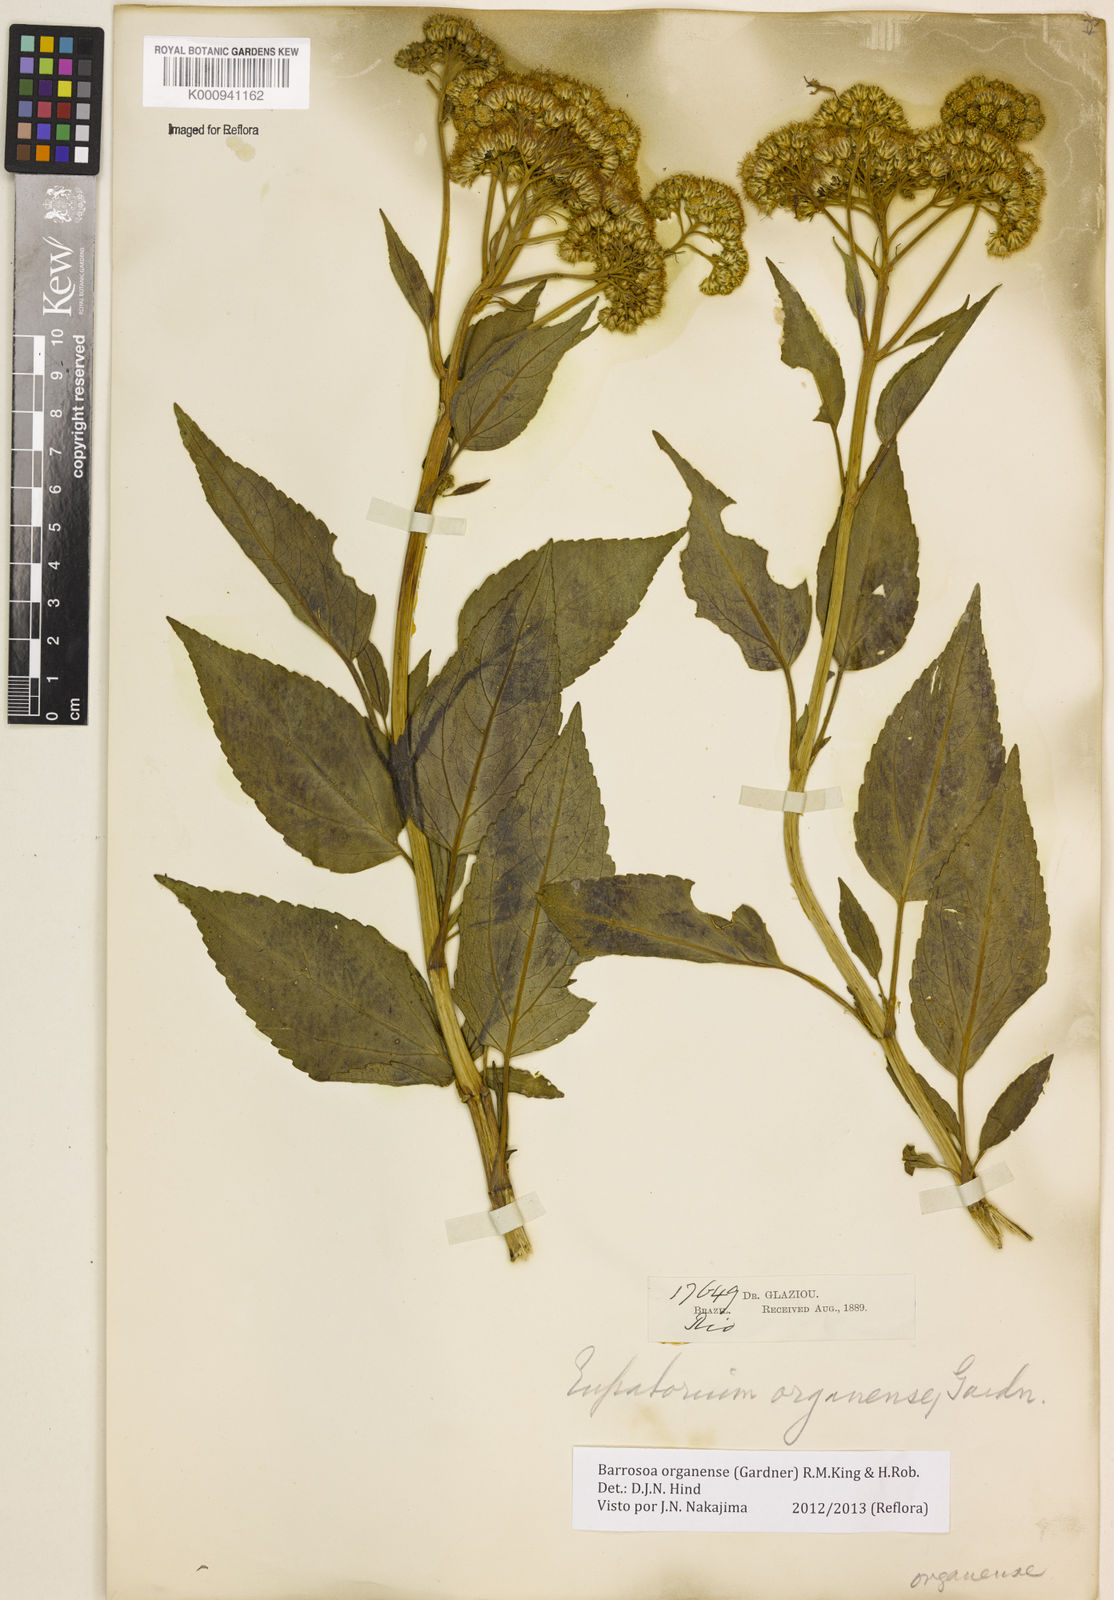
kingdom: Plantae
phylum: Tracheophyta
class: Magnoliopsida
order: Asterales
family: Asteraceae
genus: Barrosoa
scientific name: Barrosoa
